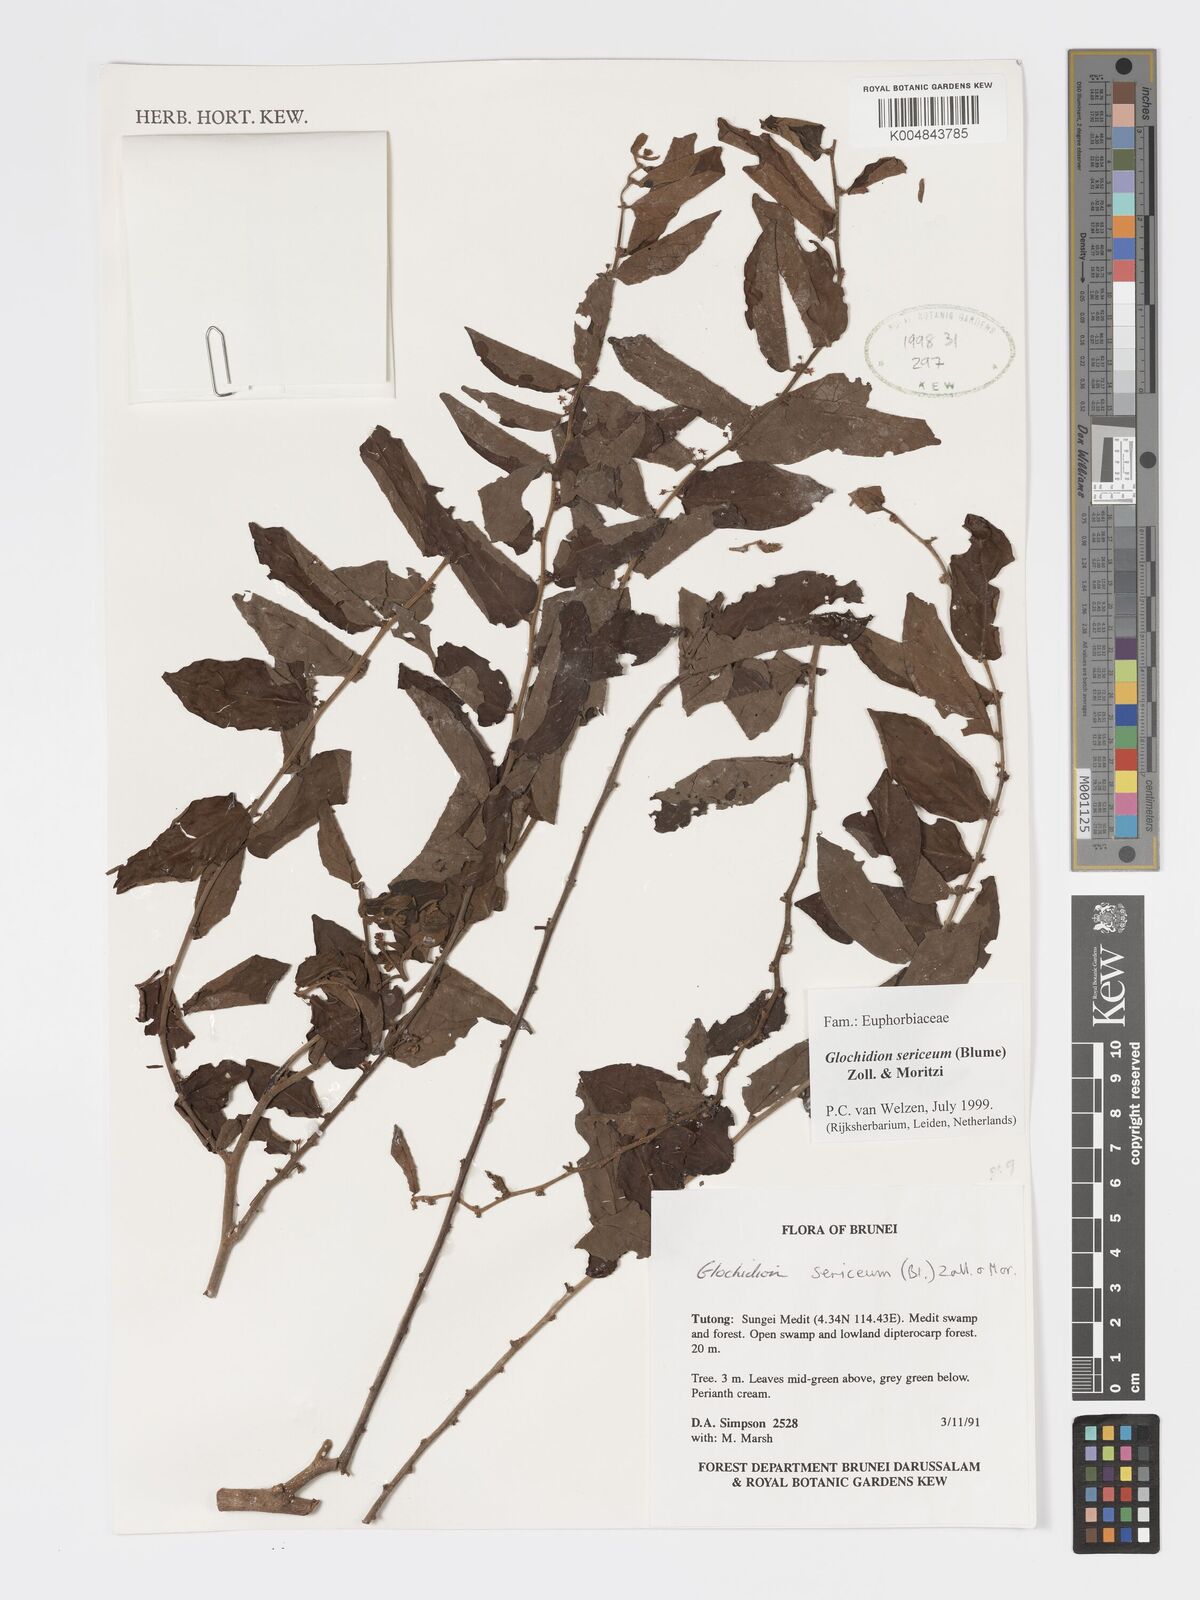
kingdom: Plantae
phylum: Tracheophyta
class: Magnoliopsida
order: Malpighiales
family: Phyllanthaceae
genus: Glochidion
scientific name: Glochidion sericeum
